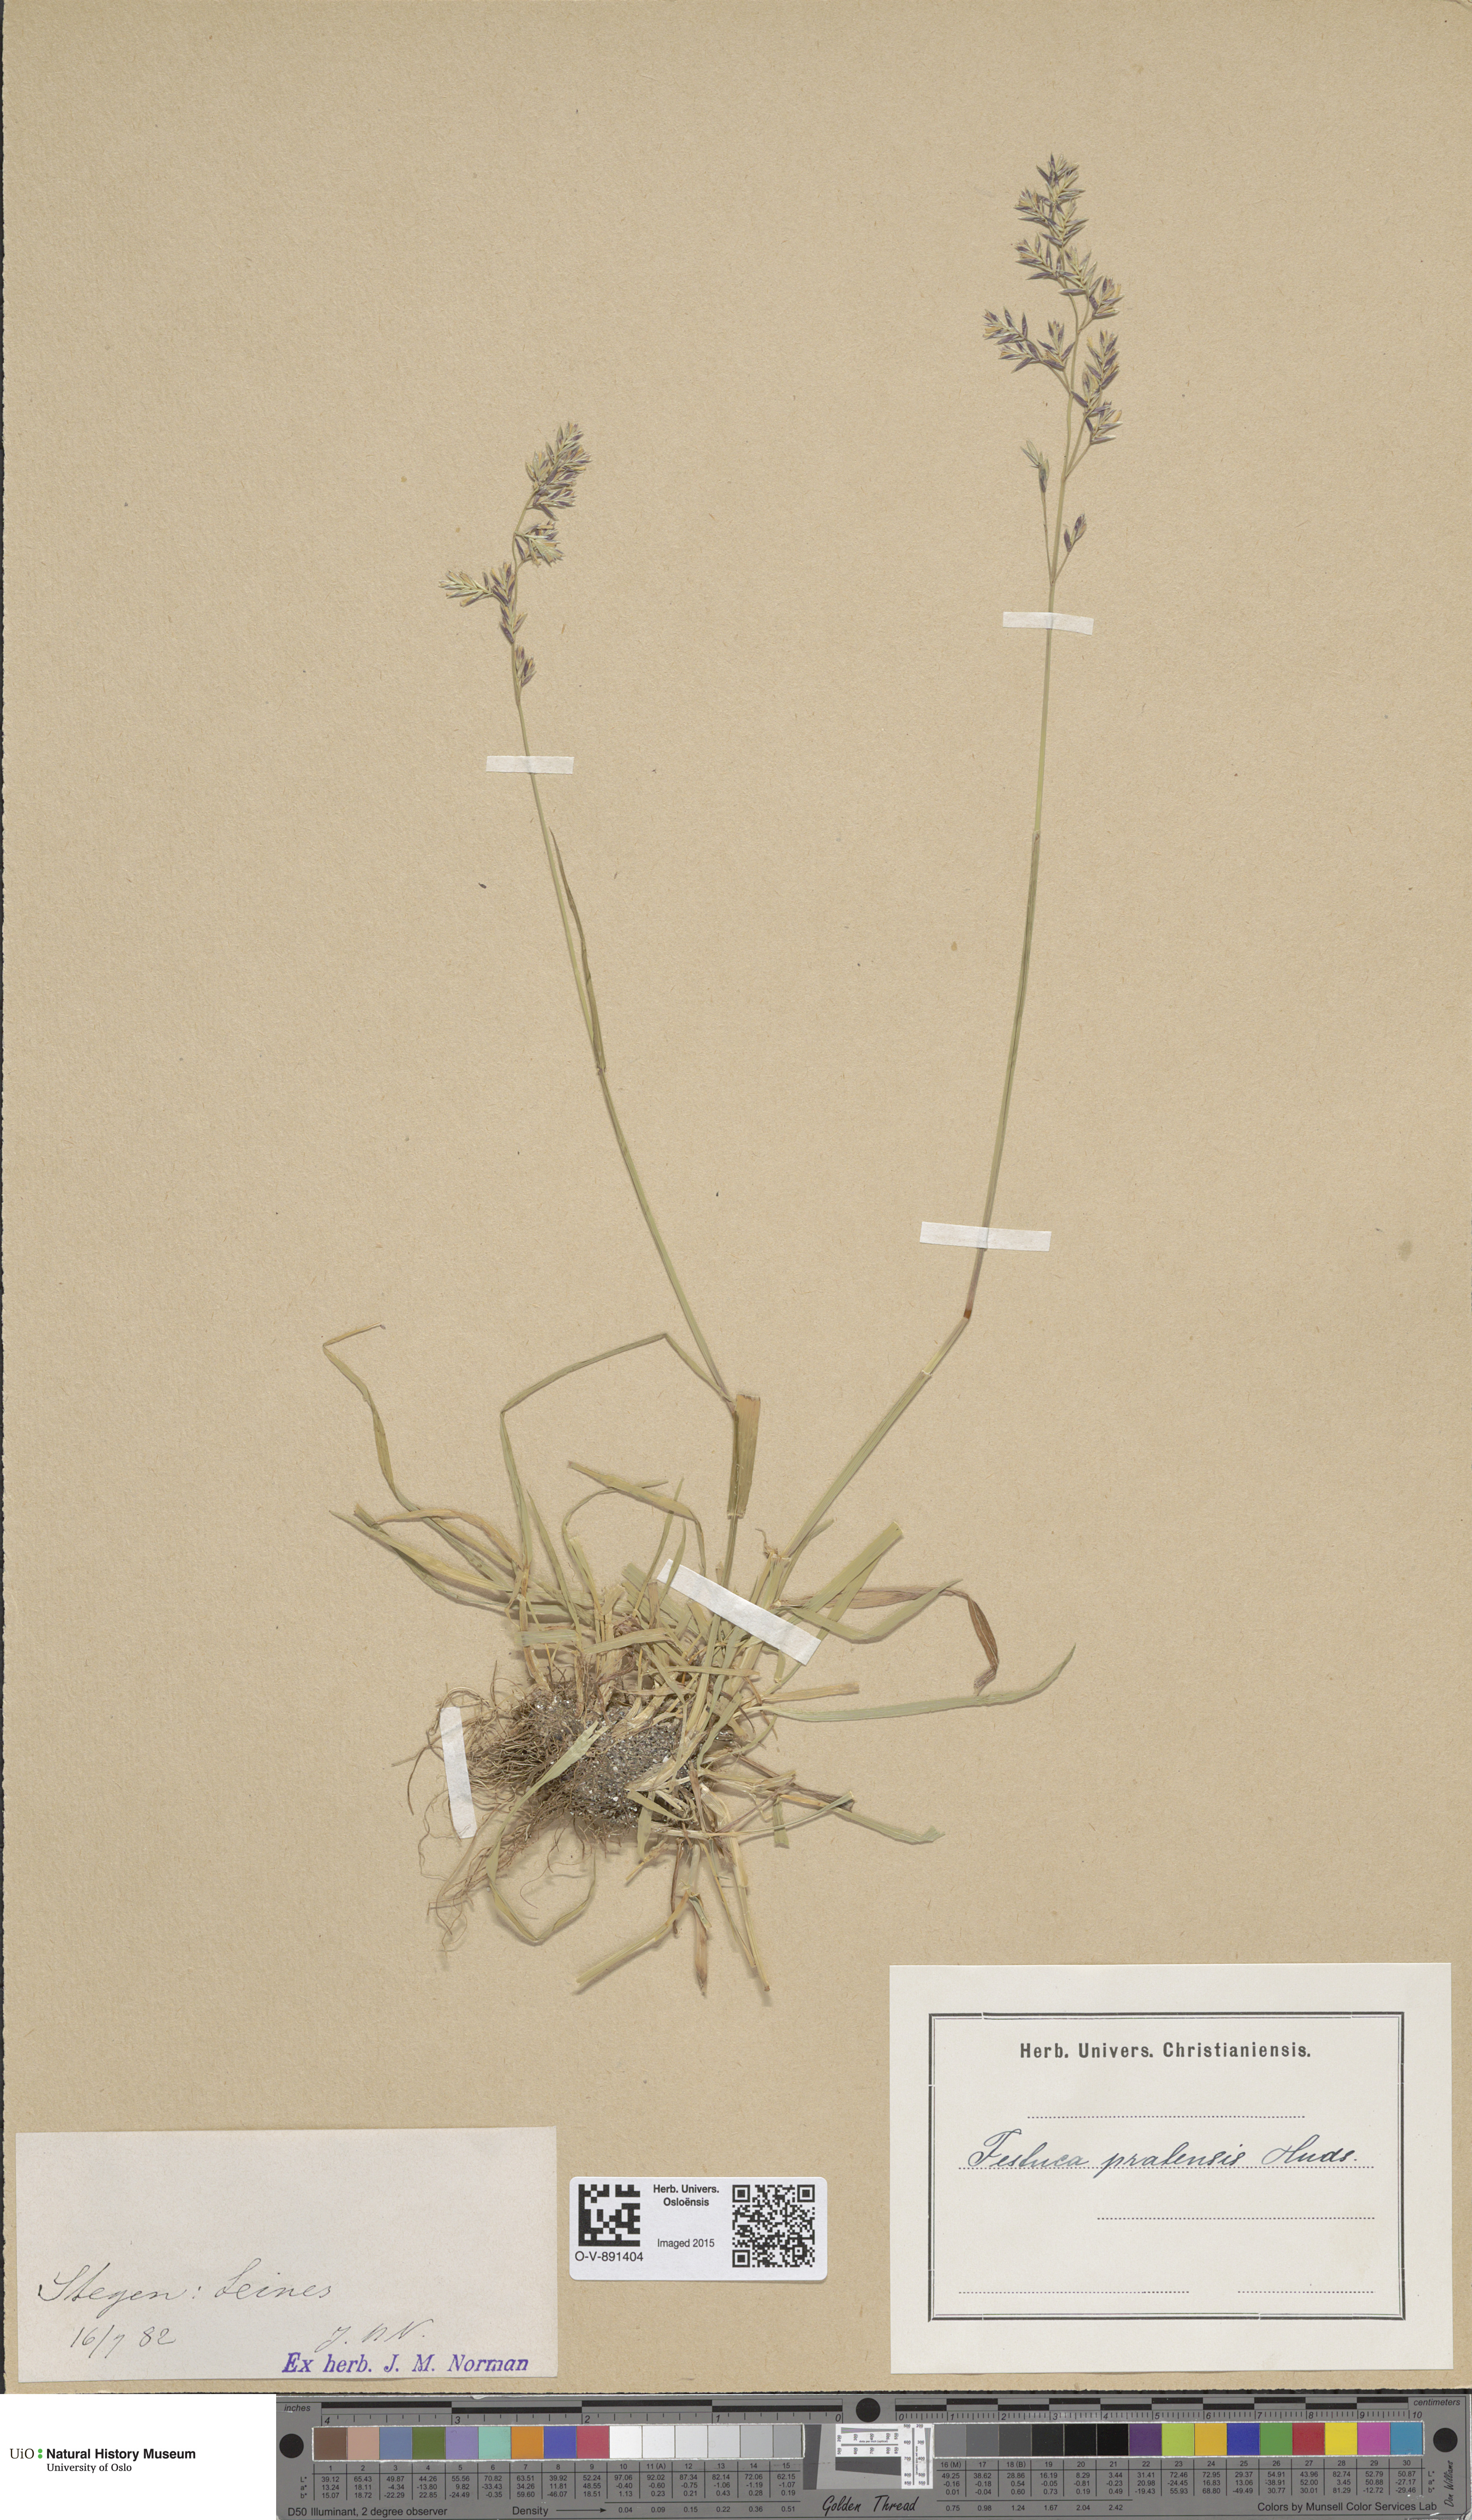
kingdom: Plantae
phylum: Tracheophyta
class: Liliopsida
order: Poales
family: Poaceae
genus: Lolium
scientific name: Lolium pratense
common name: Dover grass
